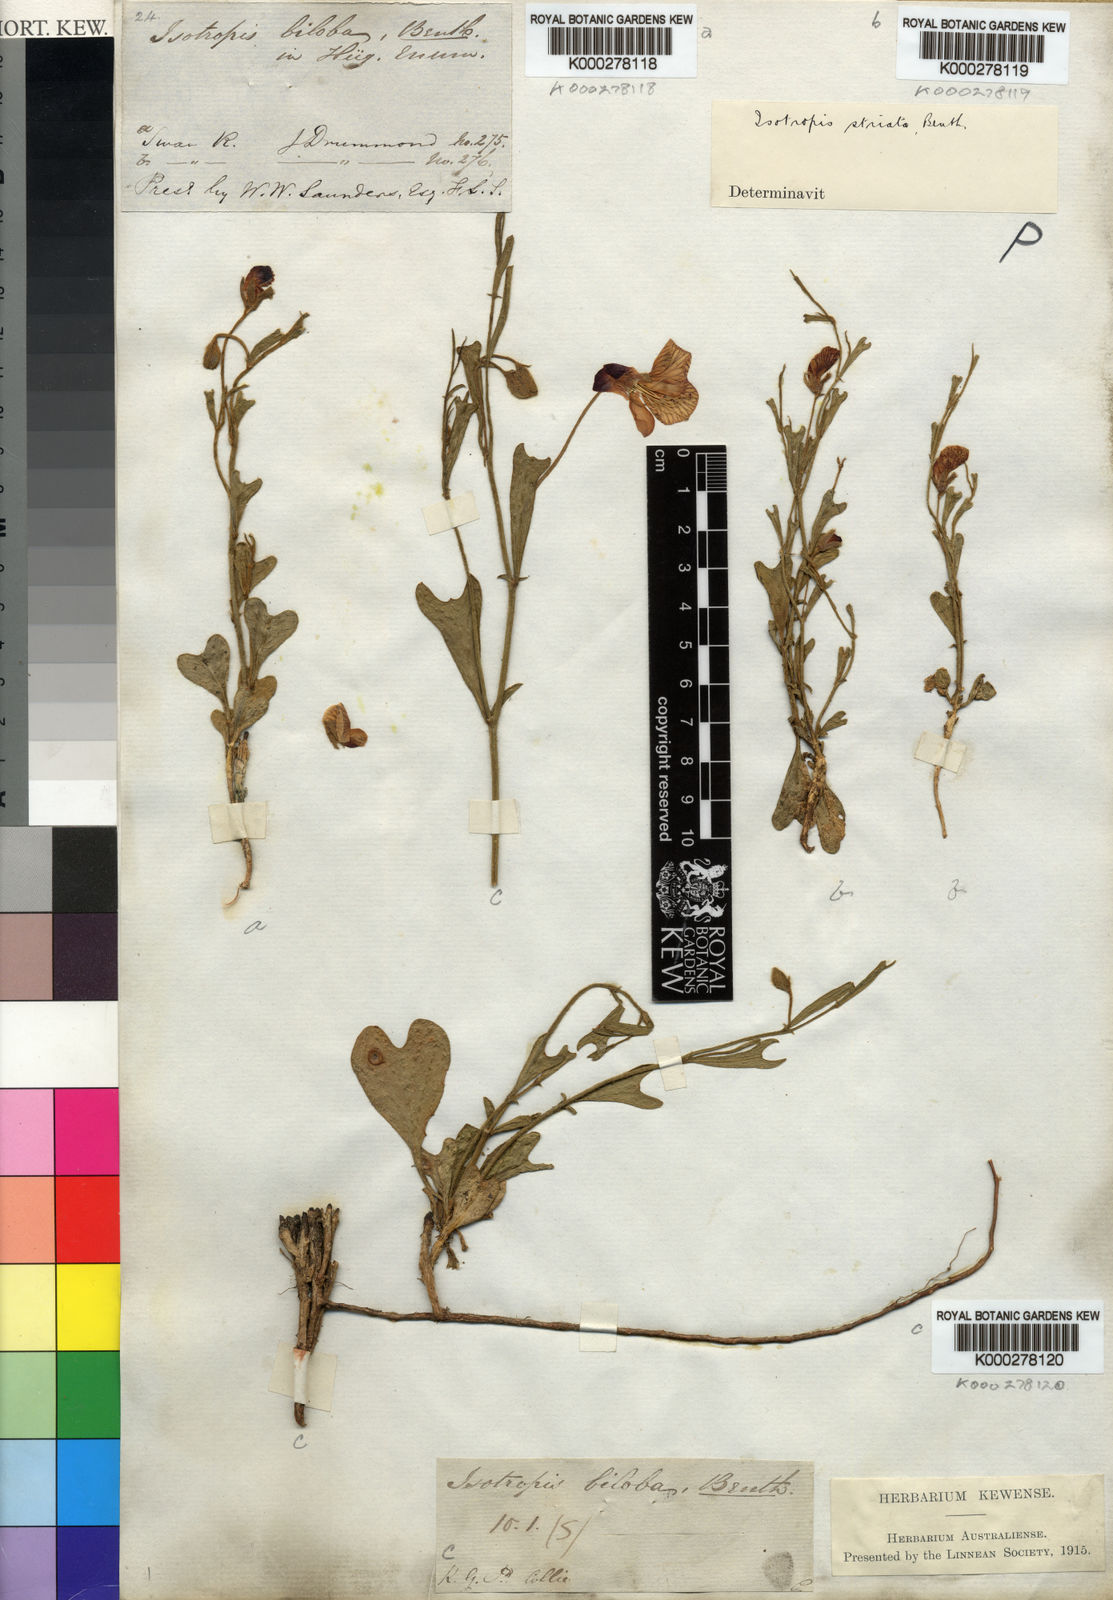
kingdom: Plantae
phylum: Tracheophyta
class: Magnoliopsida
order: Fabales
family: Fabaceae
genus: Isotropis
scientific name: Isotropis cuneifolia
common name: Granny bonnets
